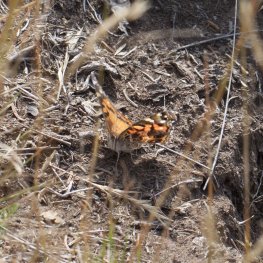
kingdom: Animalia
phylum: Arthropoda
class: Insecta
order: Lepidoptera
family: Nymphalidae
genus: Vanessa
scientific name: Vanessa virginiensis
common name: American Lady
